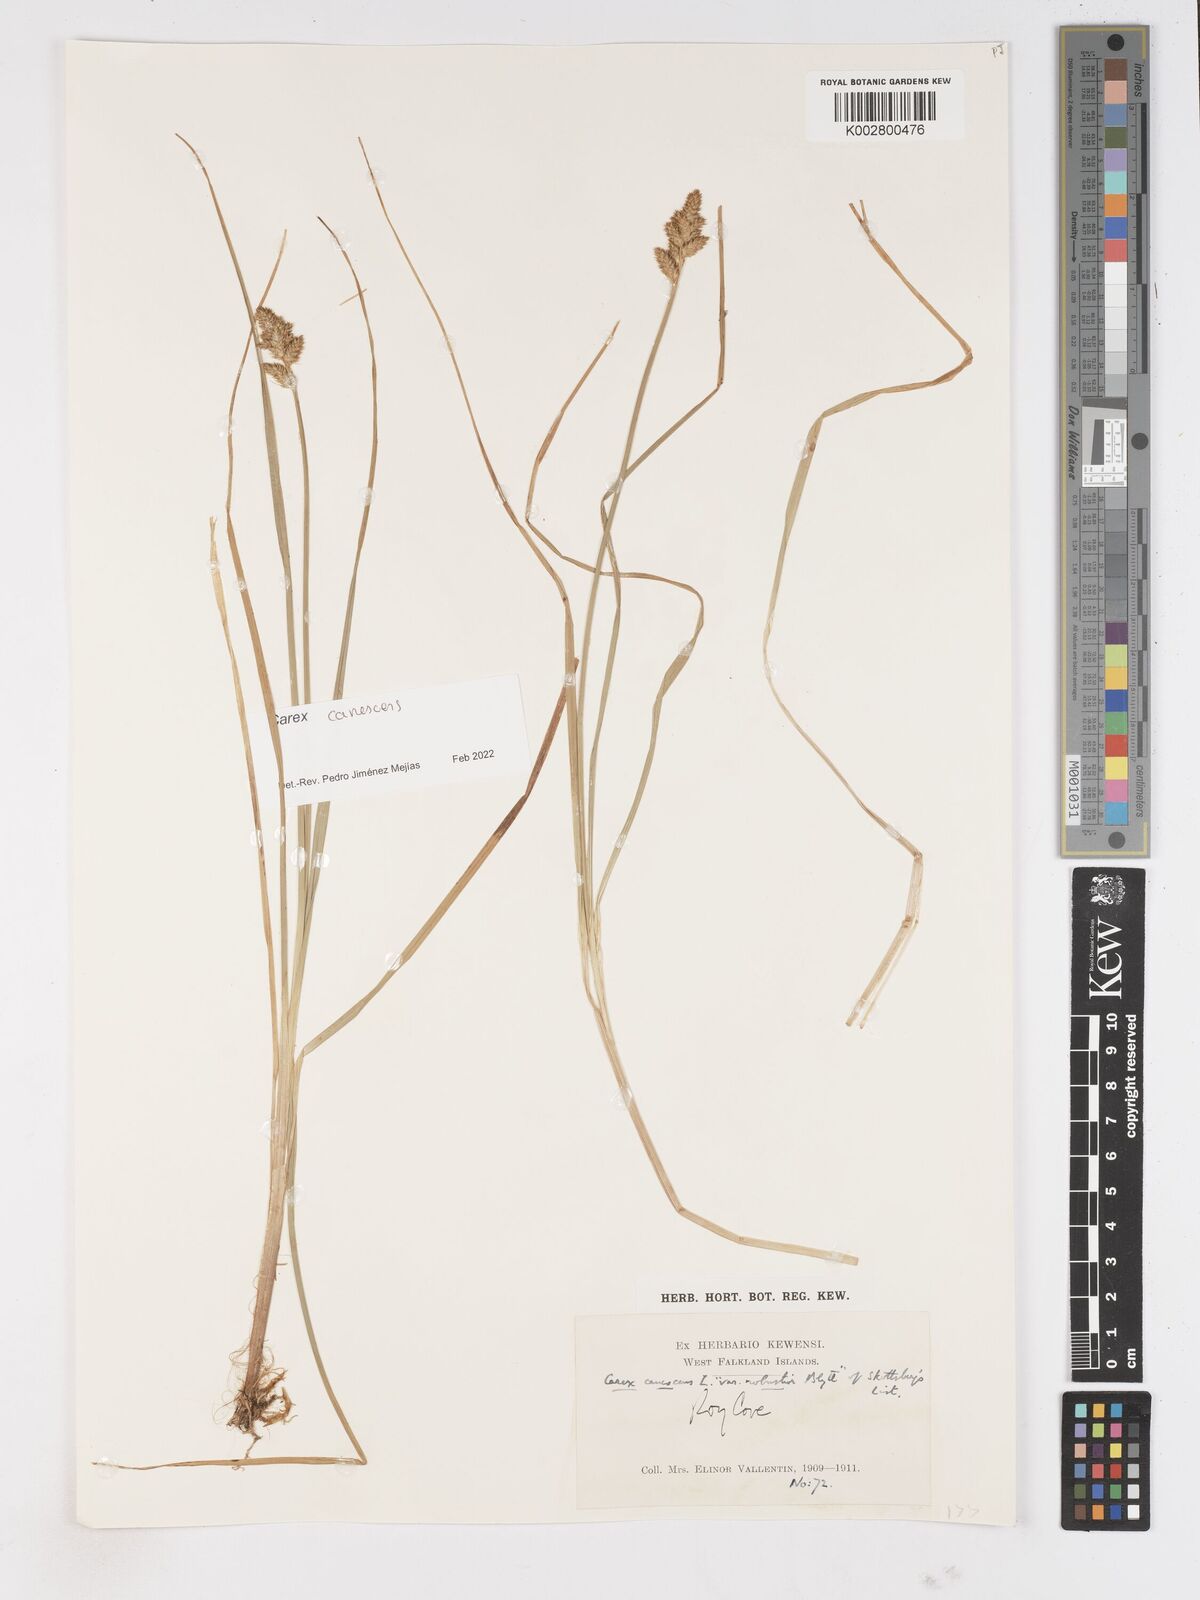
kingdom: Plantae
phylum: Tracheophyta
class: Liliopsida
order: Poales
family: Cyperaceae
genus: Carex
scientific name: Carex curta
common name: White sedge
